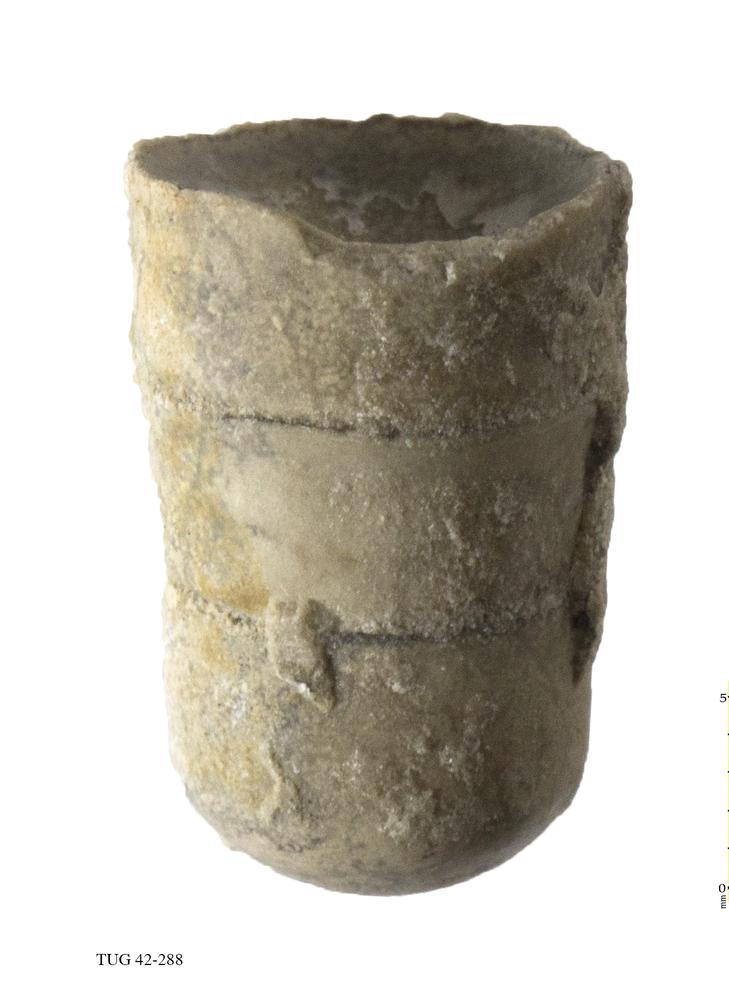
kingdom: Animalia
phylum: Mollusca
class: Cephalopoda
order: Orthocerida
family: Orthoceratidae
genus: Orthoceras
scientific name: Orthoceras
